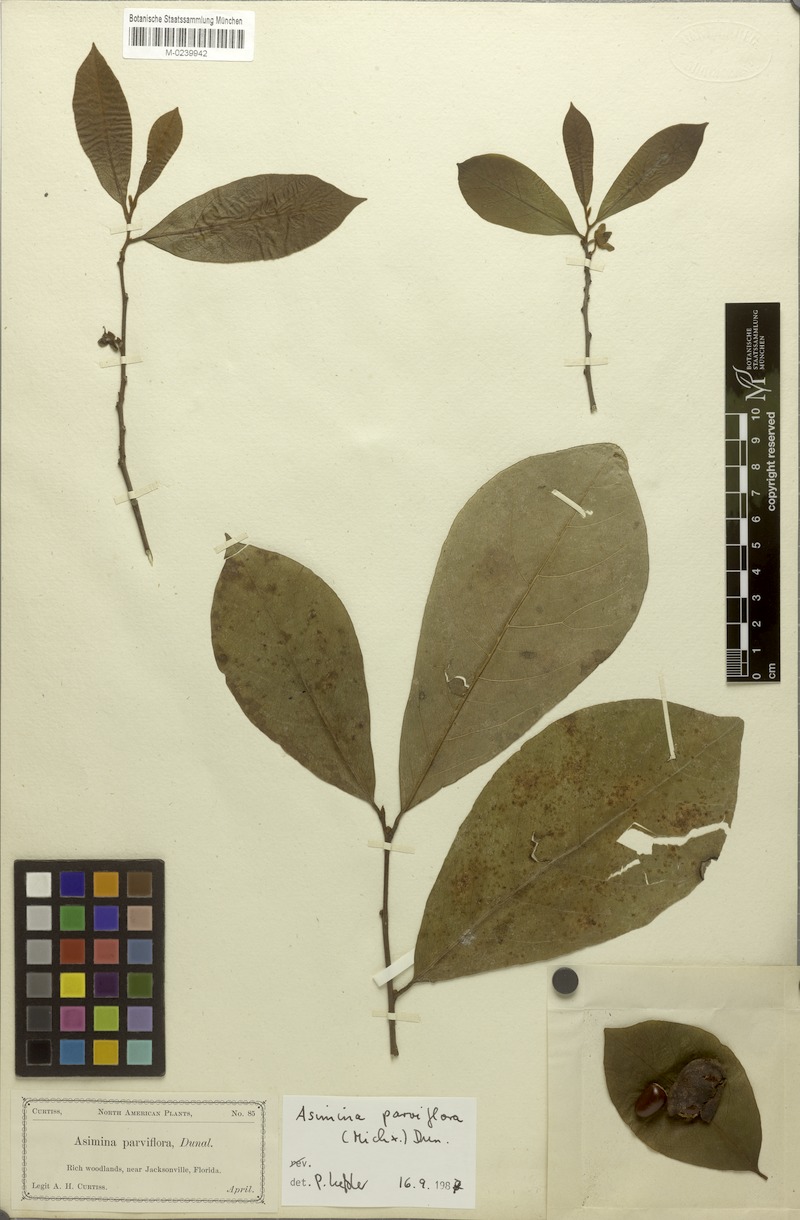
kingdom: Plantae
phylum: Tracheophyta
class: Magnoliopsida
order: Magnoliales
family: Annonaceae
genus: Asimina
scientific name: Asimina parviflora
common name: Dwarf pawpaw
